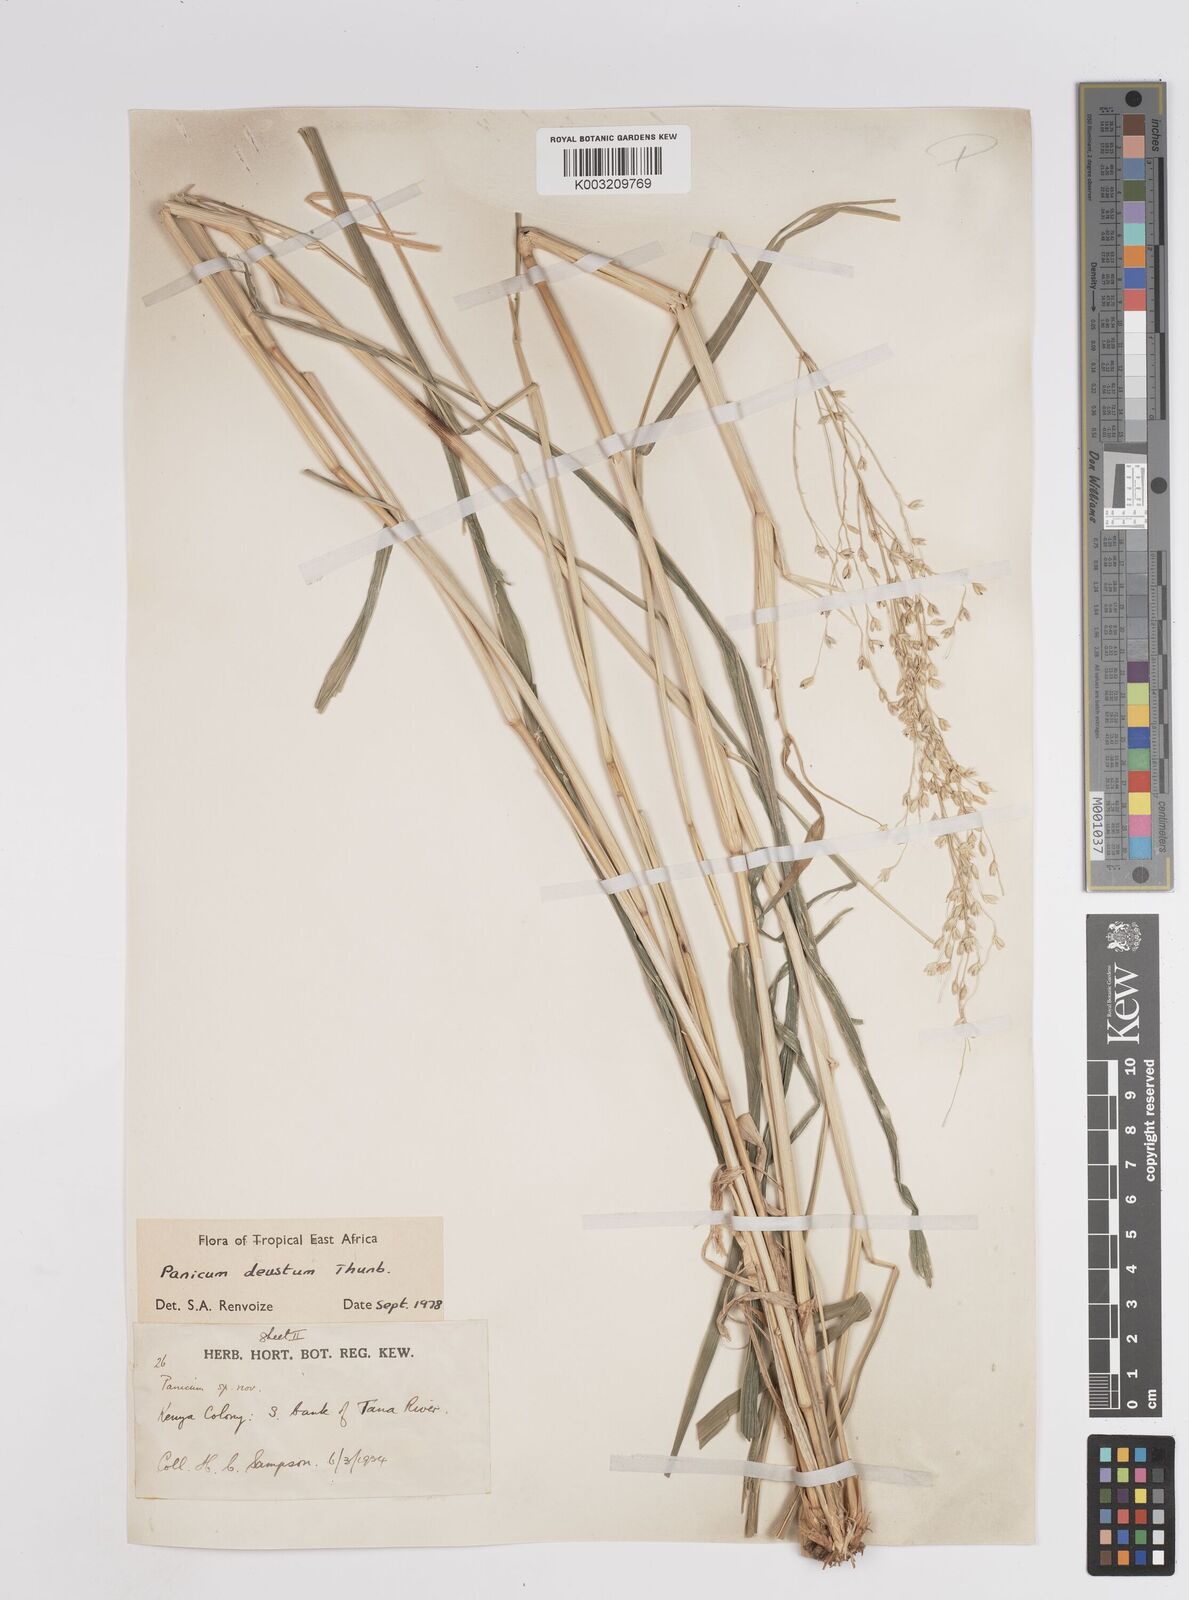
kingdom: Plantae
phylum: Tracheophyta
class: Liliopsida
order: Poales
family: Poaceae
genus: Panicum
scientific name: Panicum
